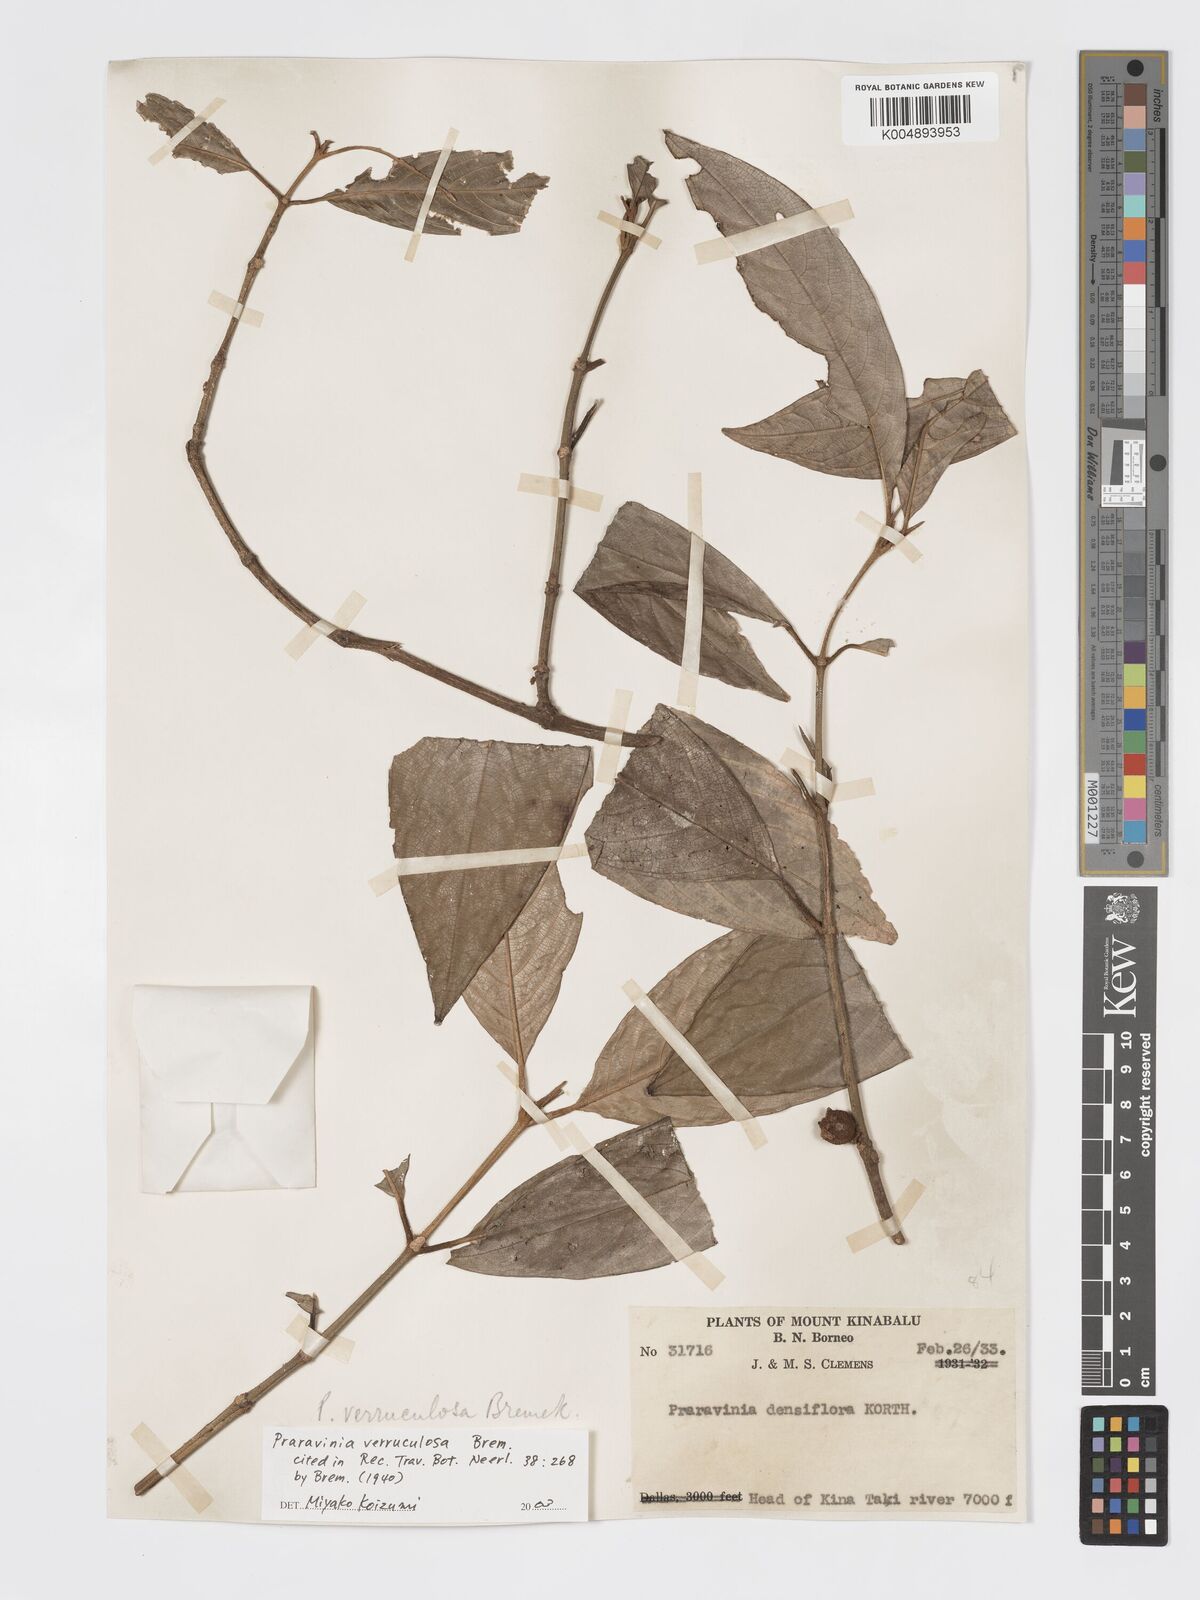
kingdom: Plantae
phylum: Tracheophyta
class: Magnoliopsida
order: Gentianales
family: Rubiaceae
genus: Praravinia
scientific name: Praravinia verruculosa
